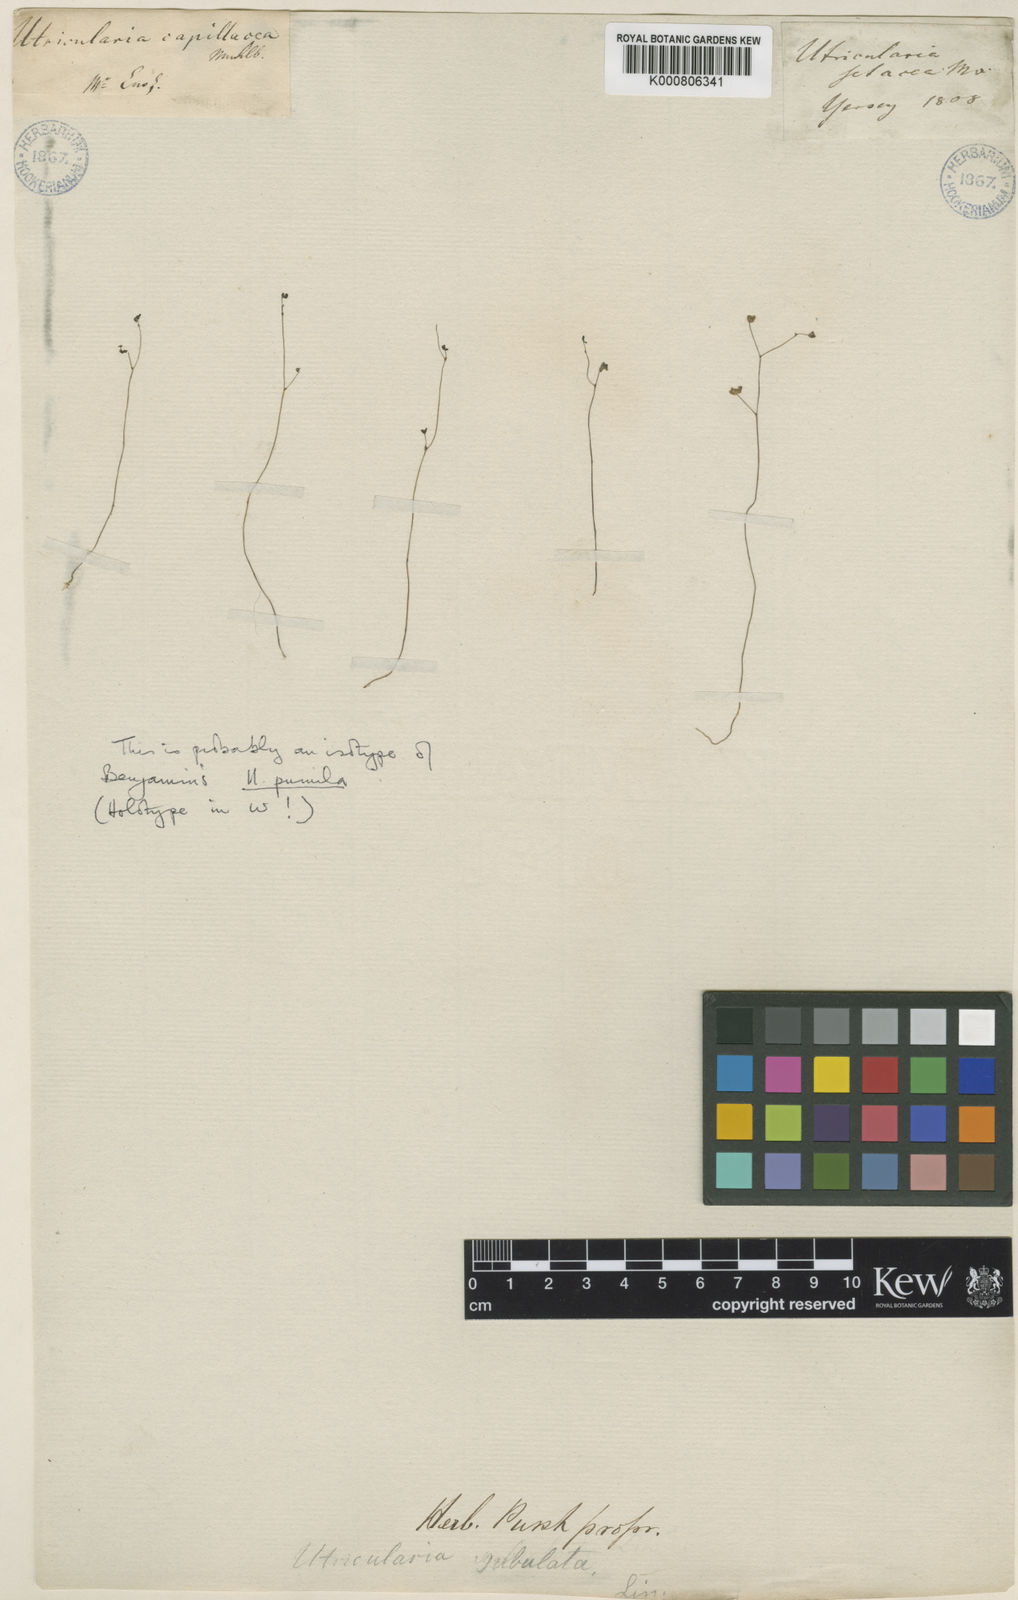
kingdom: Plantae
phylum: Tracheophyta
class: Magnoliopsida
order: Lamiales
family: Lentibulariaceae
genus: Utricularia
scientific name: Utricularia subulata
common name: Tiny bladderwort
